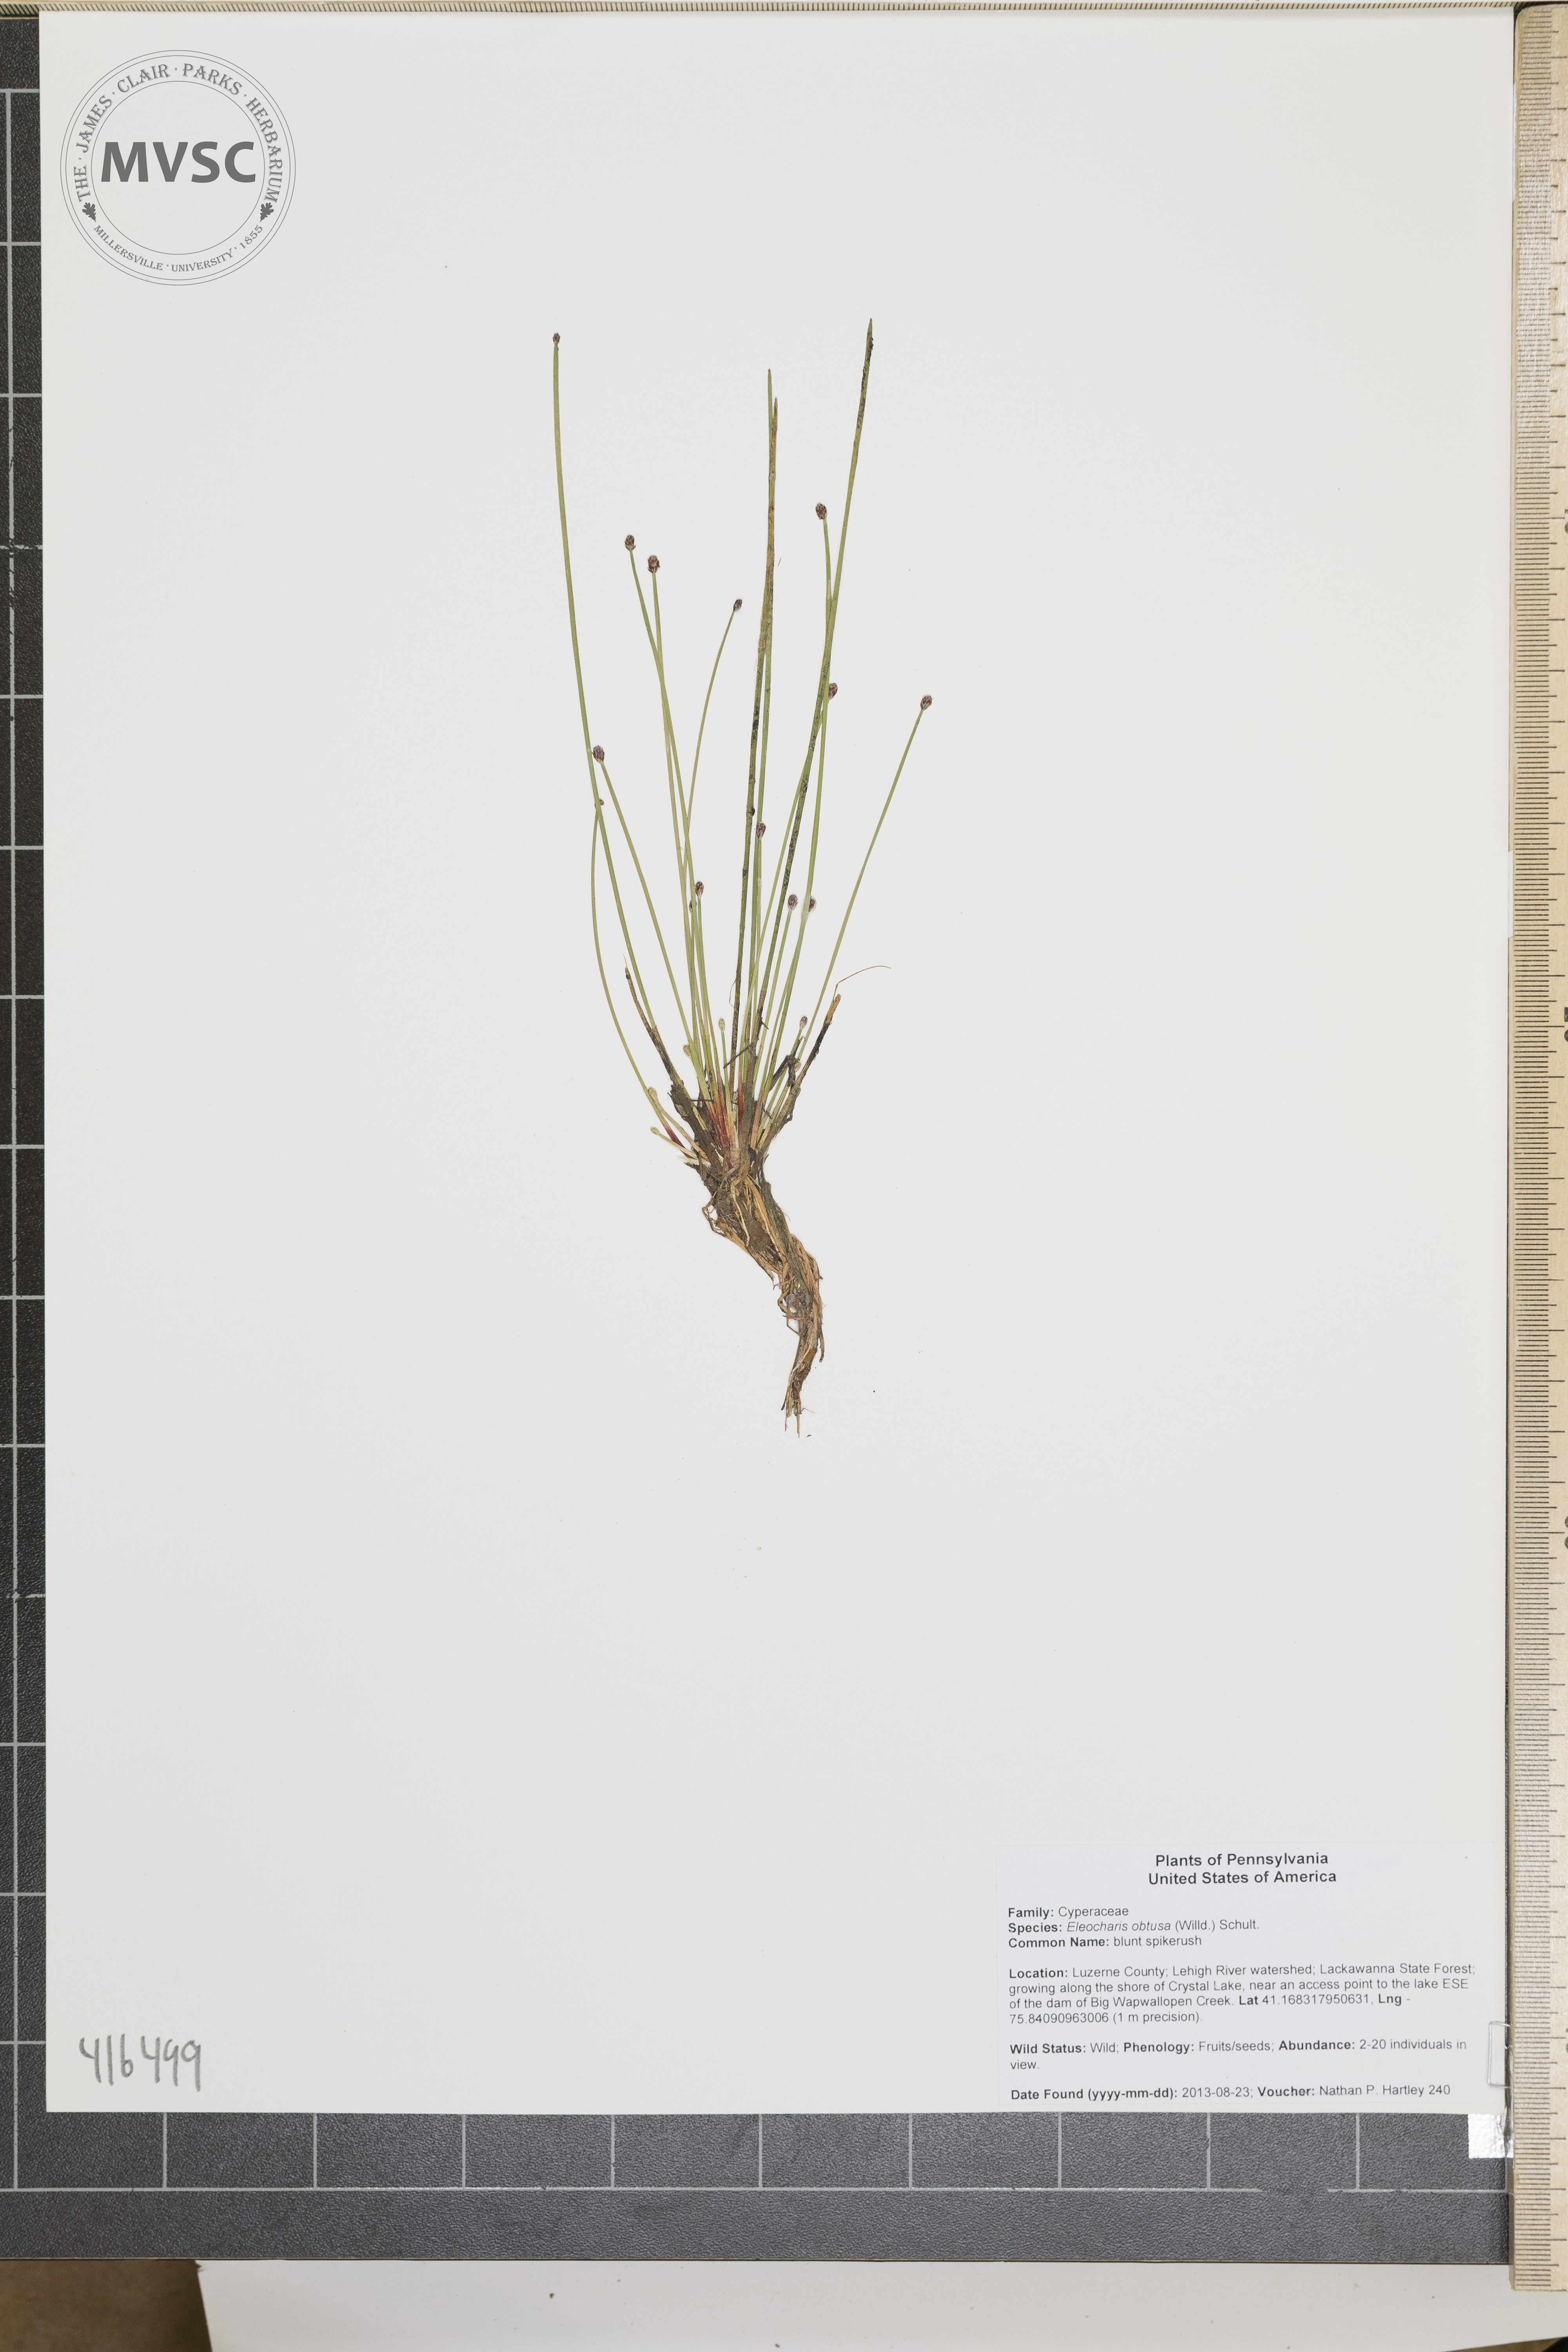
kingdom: Plantae
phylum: Tracheophyta
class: Liliopsida
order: Poales
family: Cyperaceae
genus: Eleocharis
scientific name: Eleocharis obtusa
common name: blunt spikerush
